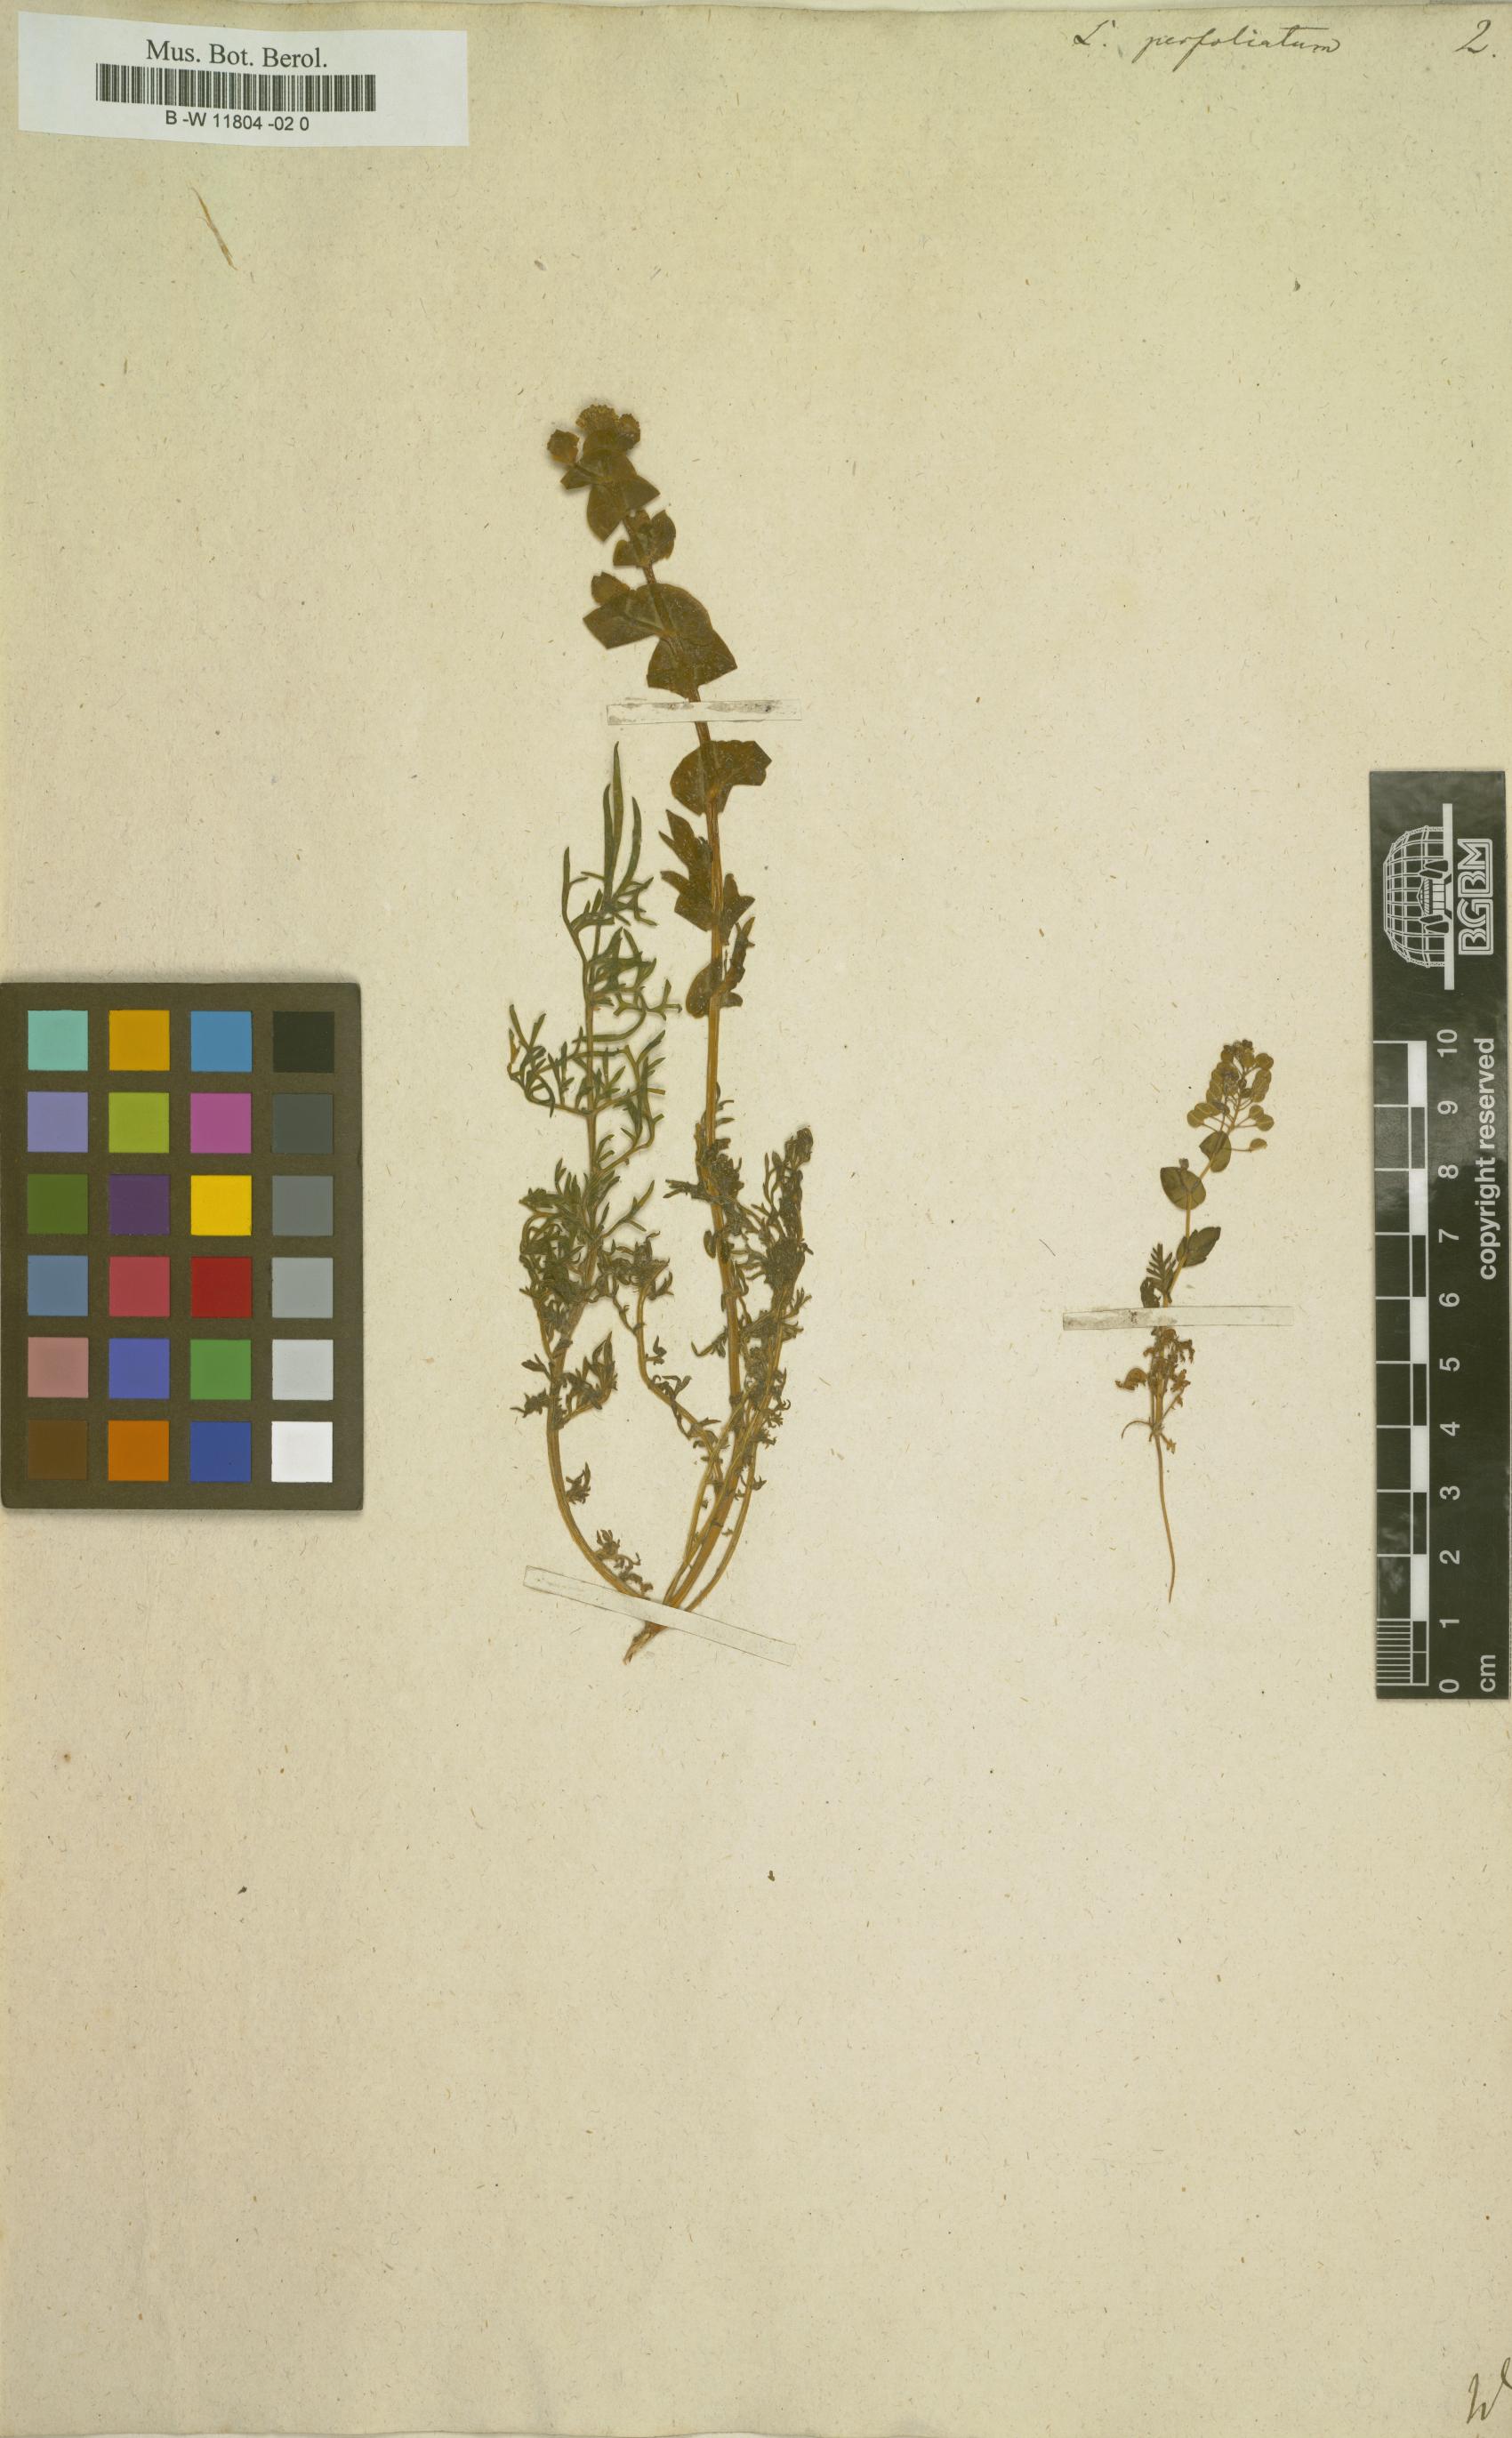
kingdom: Plantae
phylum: Tracheophyta
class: Magnoliopsida
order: Brassicales
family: Brassicaceae
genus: Lepidium
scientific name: Lepidium perfoliatum
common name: Perfoliate pepperwort
